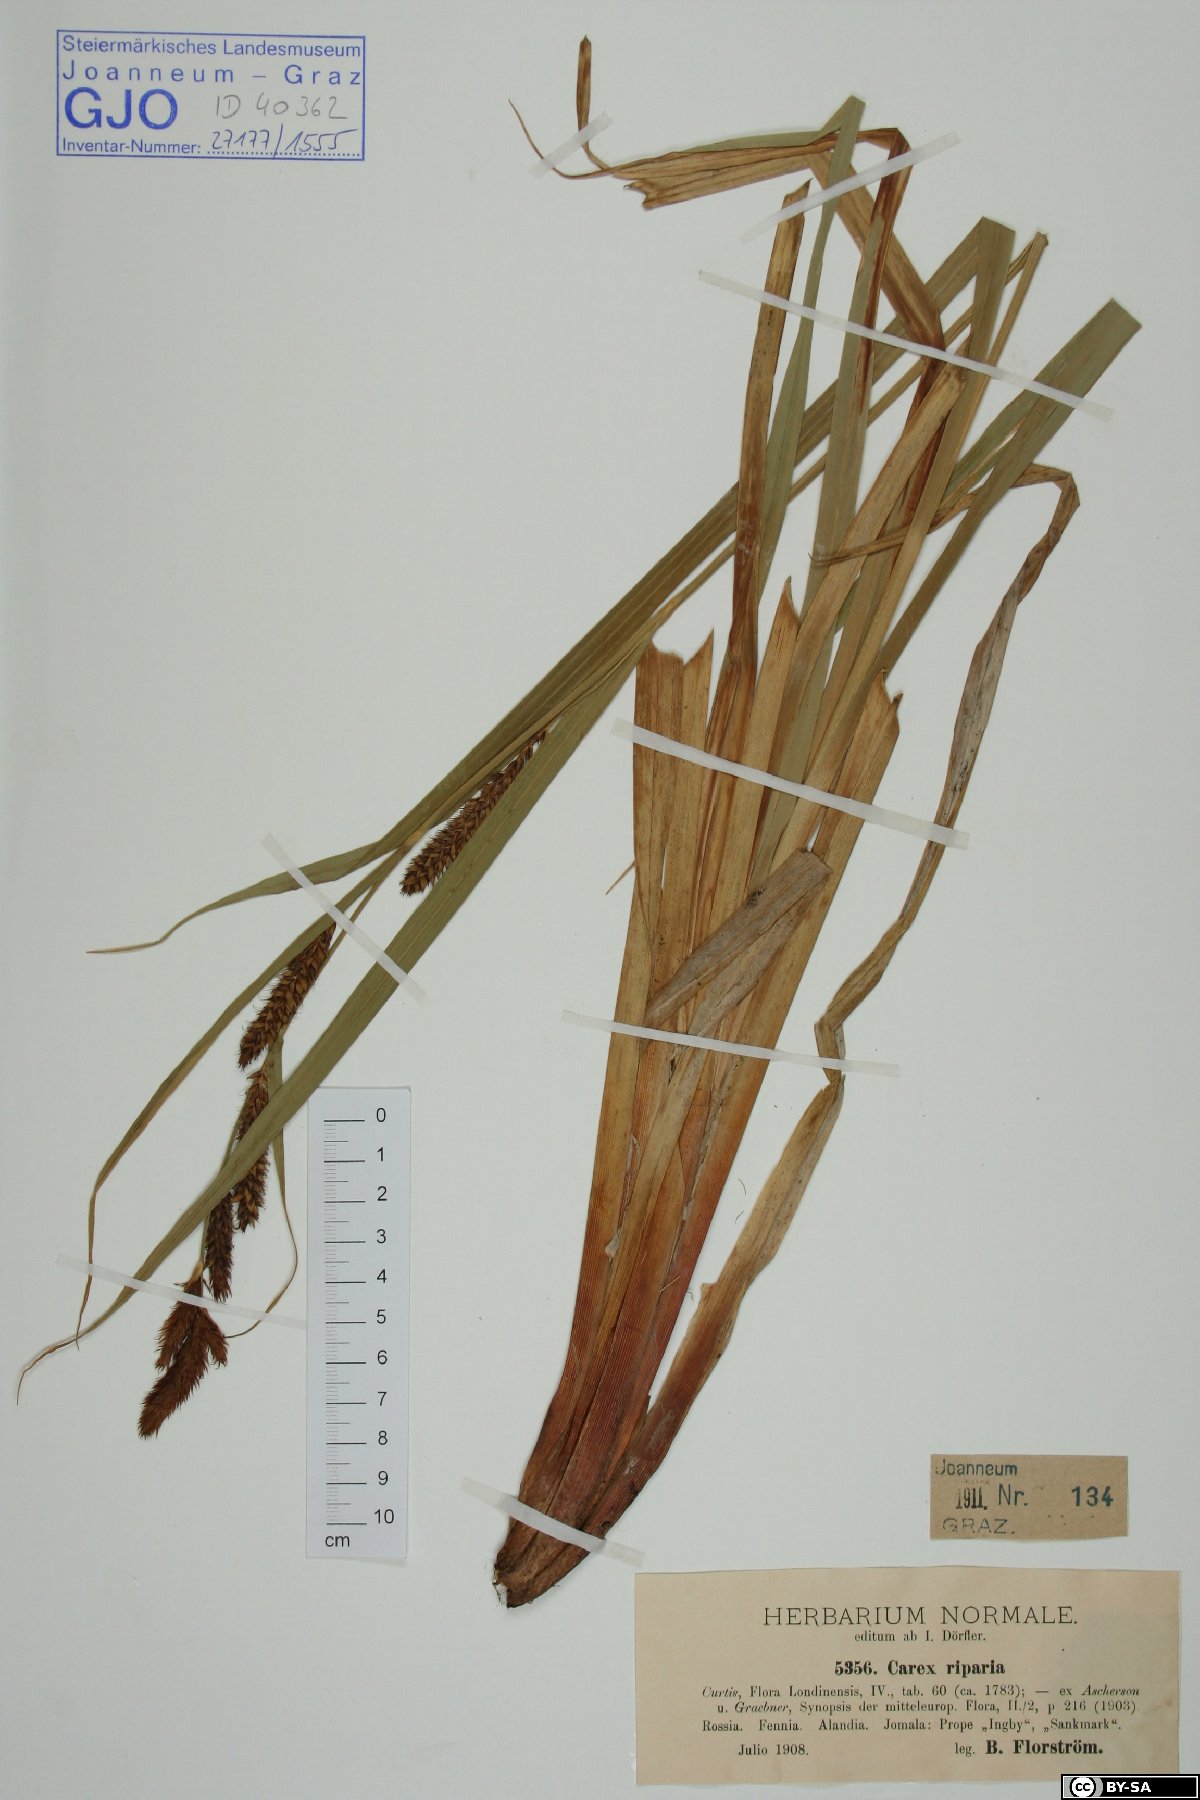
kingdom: Plantae
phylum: Tracheophyta
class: Liliopsida
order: Poales
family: Cyperaceae
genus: Carex
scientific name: Carex riparia
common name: Greater pond-sedge
